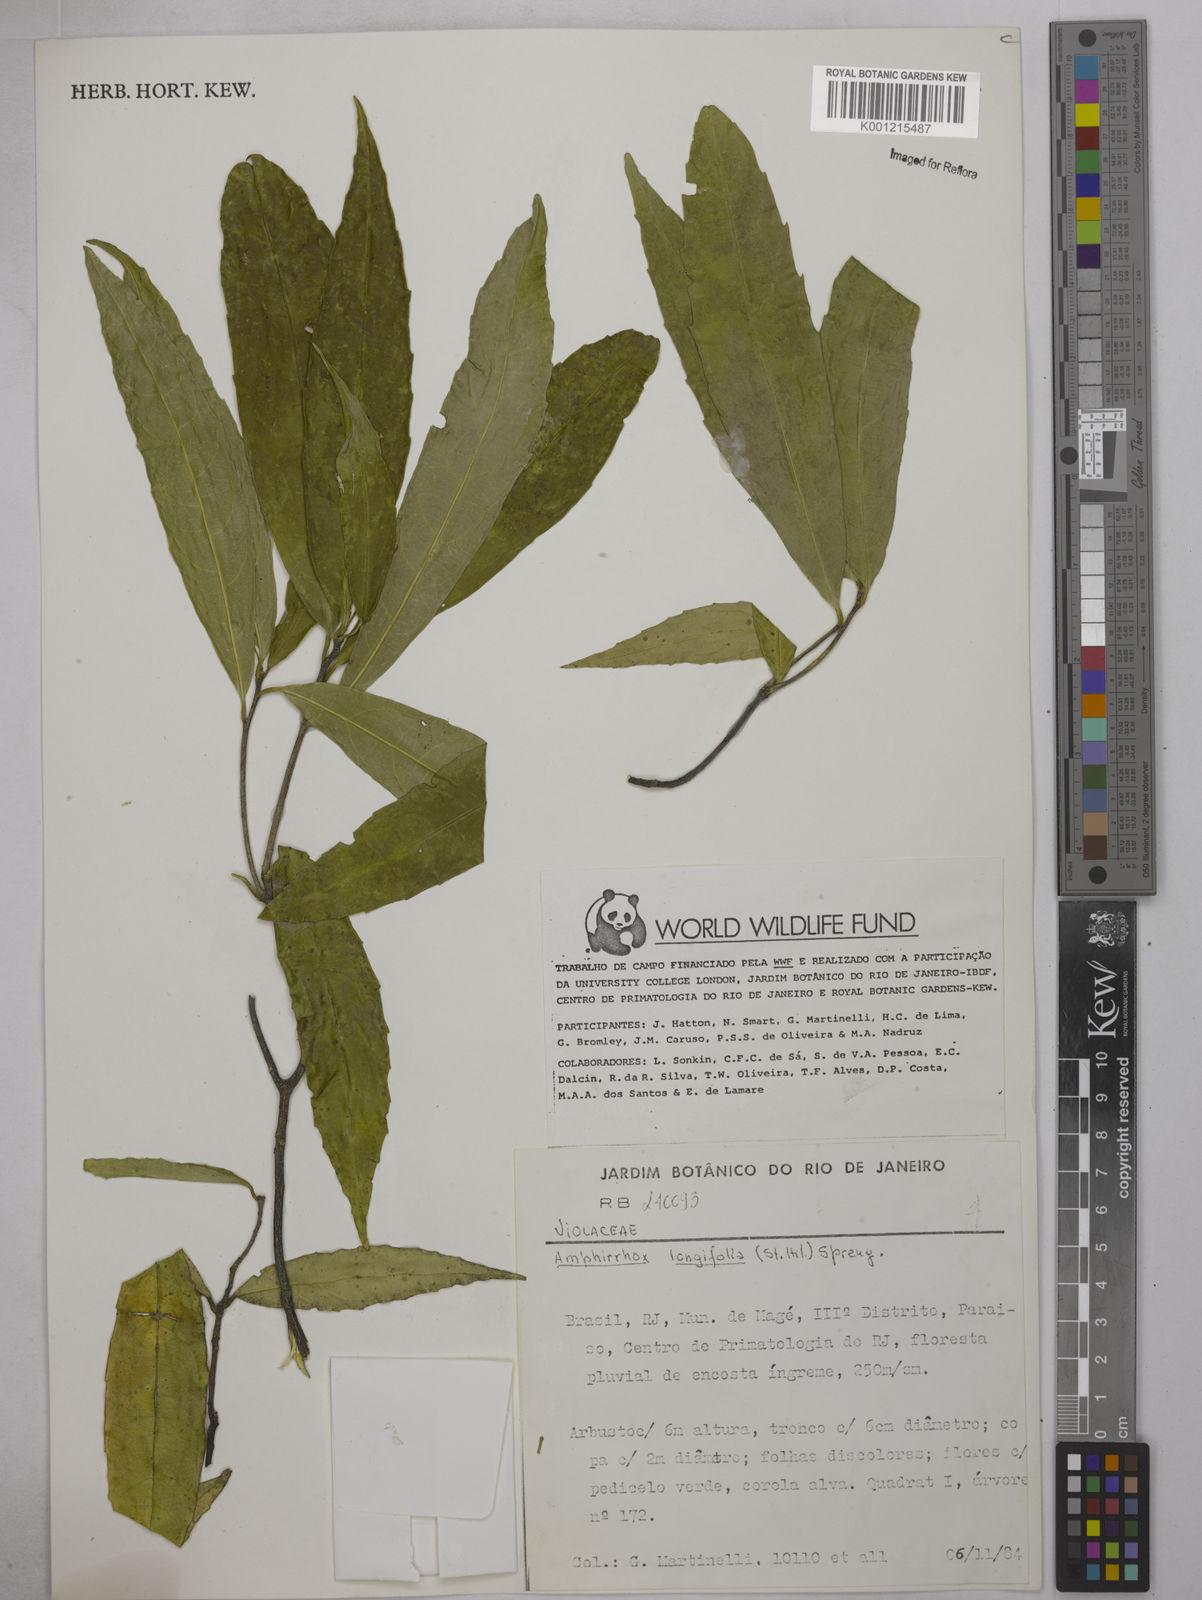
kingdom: Plantae
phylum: Tracheophyta
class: Magnoliopsida
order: Malpighiales
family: Violaceae
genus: Amphirrhox
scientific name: Amphirrhox longifolia
